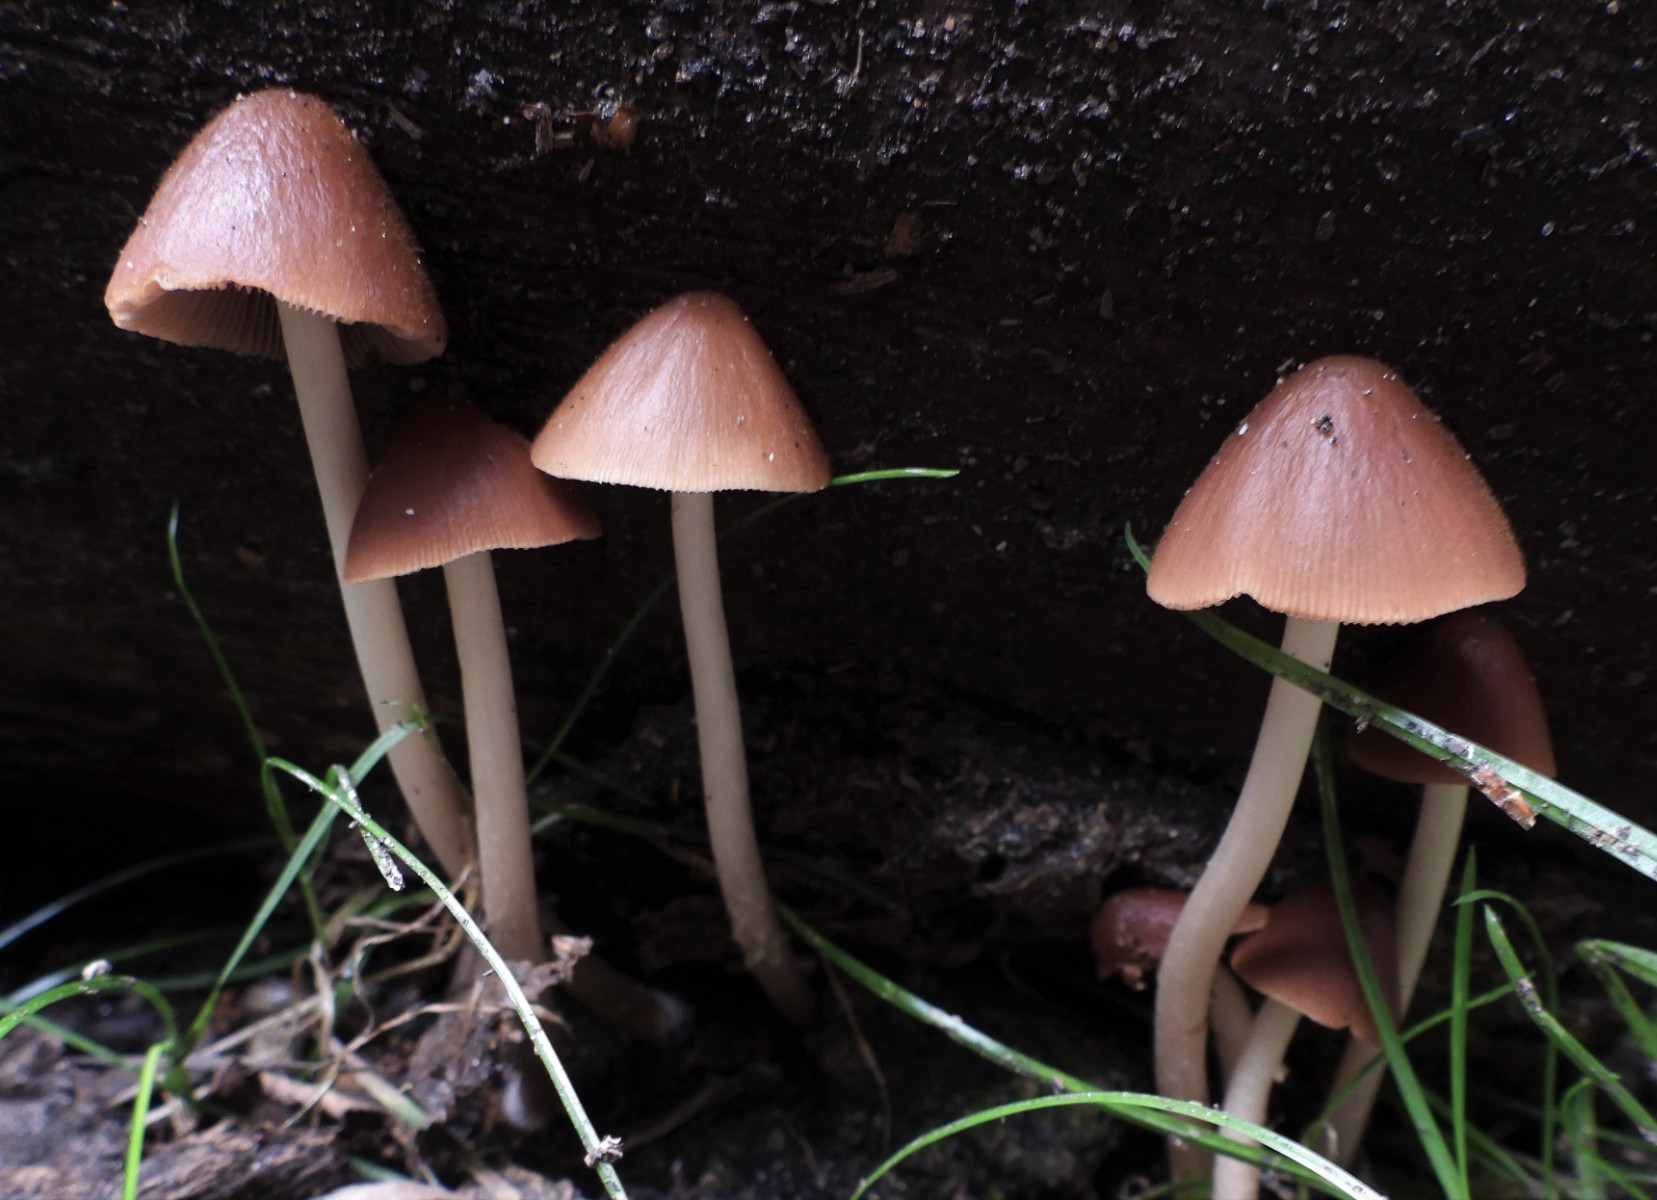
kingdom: Fungi
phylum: Basidiomycota
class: Agaricomycetes
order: Agaricales
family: Psathyrellaceae
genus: Parasola
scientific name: Parasola conopilea
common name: kegle-hjulhat
